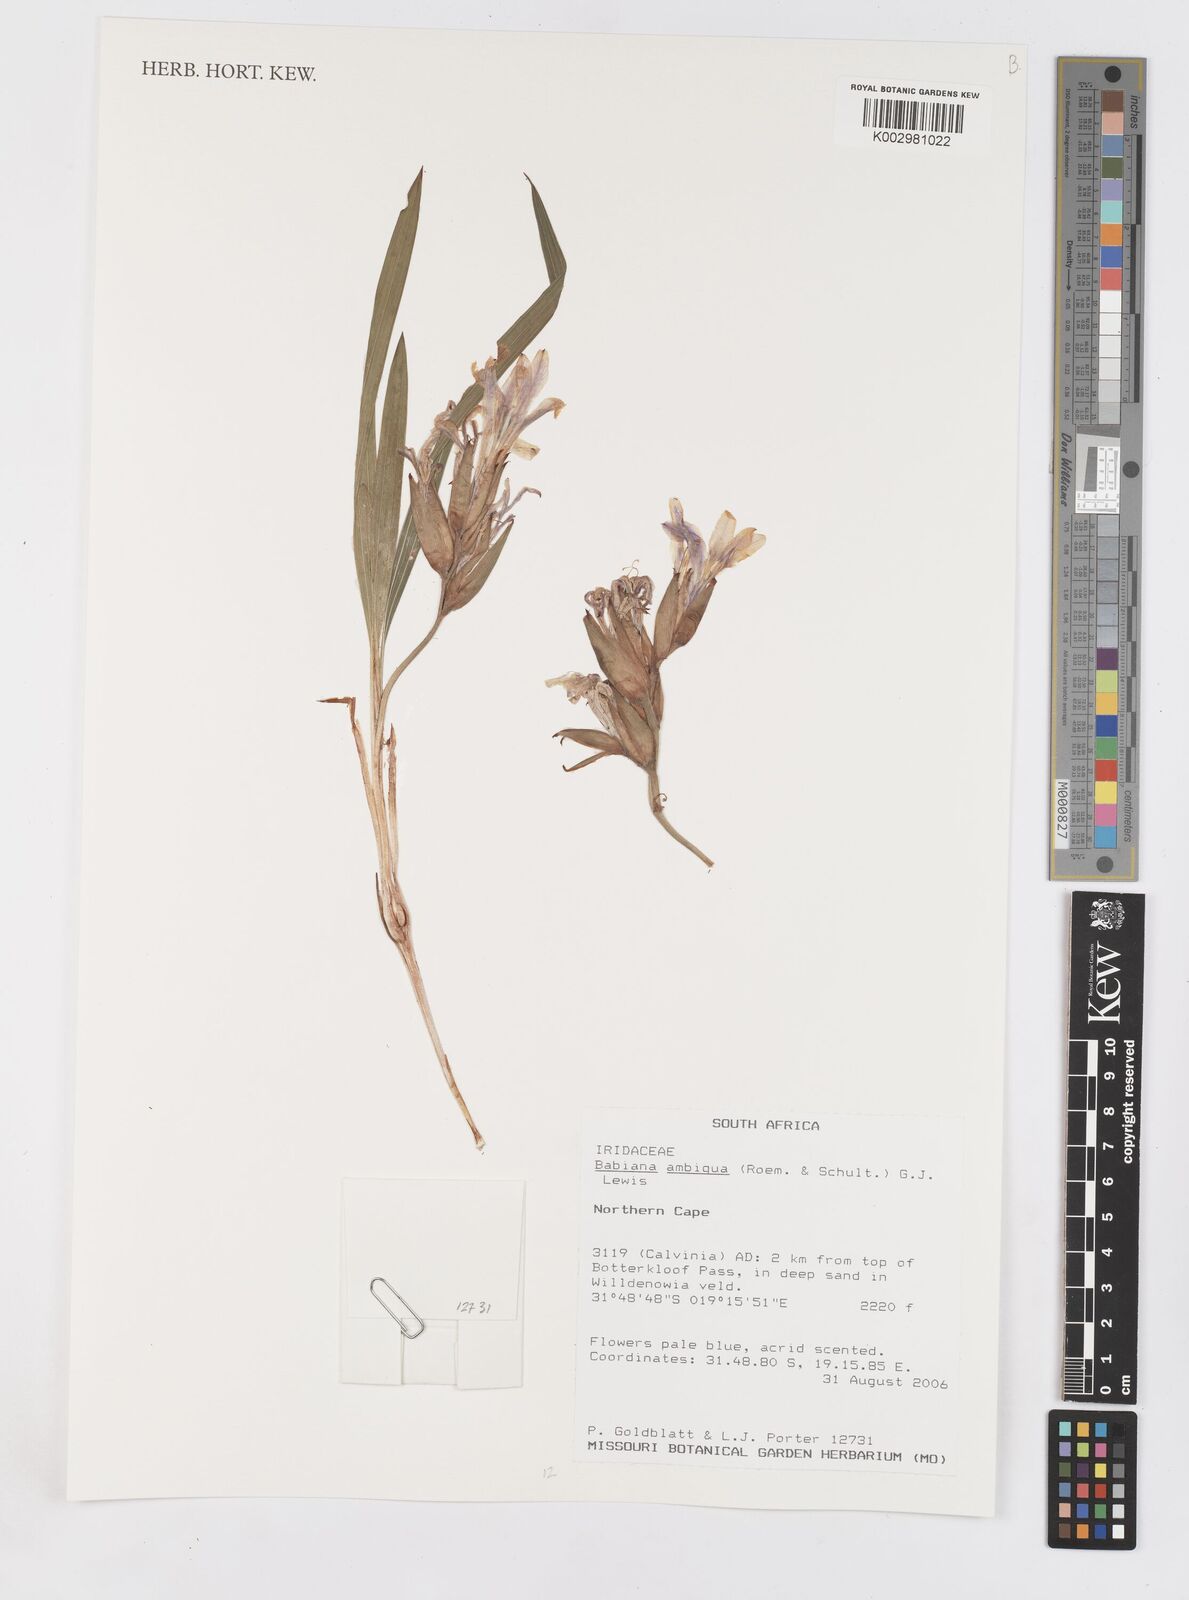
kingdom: Plantae
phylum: Tracheophyta
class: Liliopsida
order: Asparagales
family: Iridaceae
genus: Babiana
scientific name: Babiana ambigua
